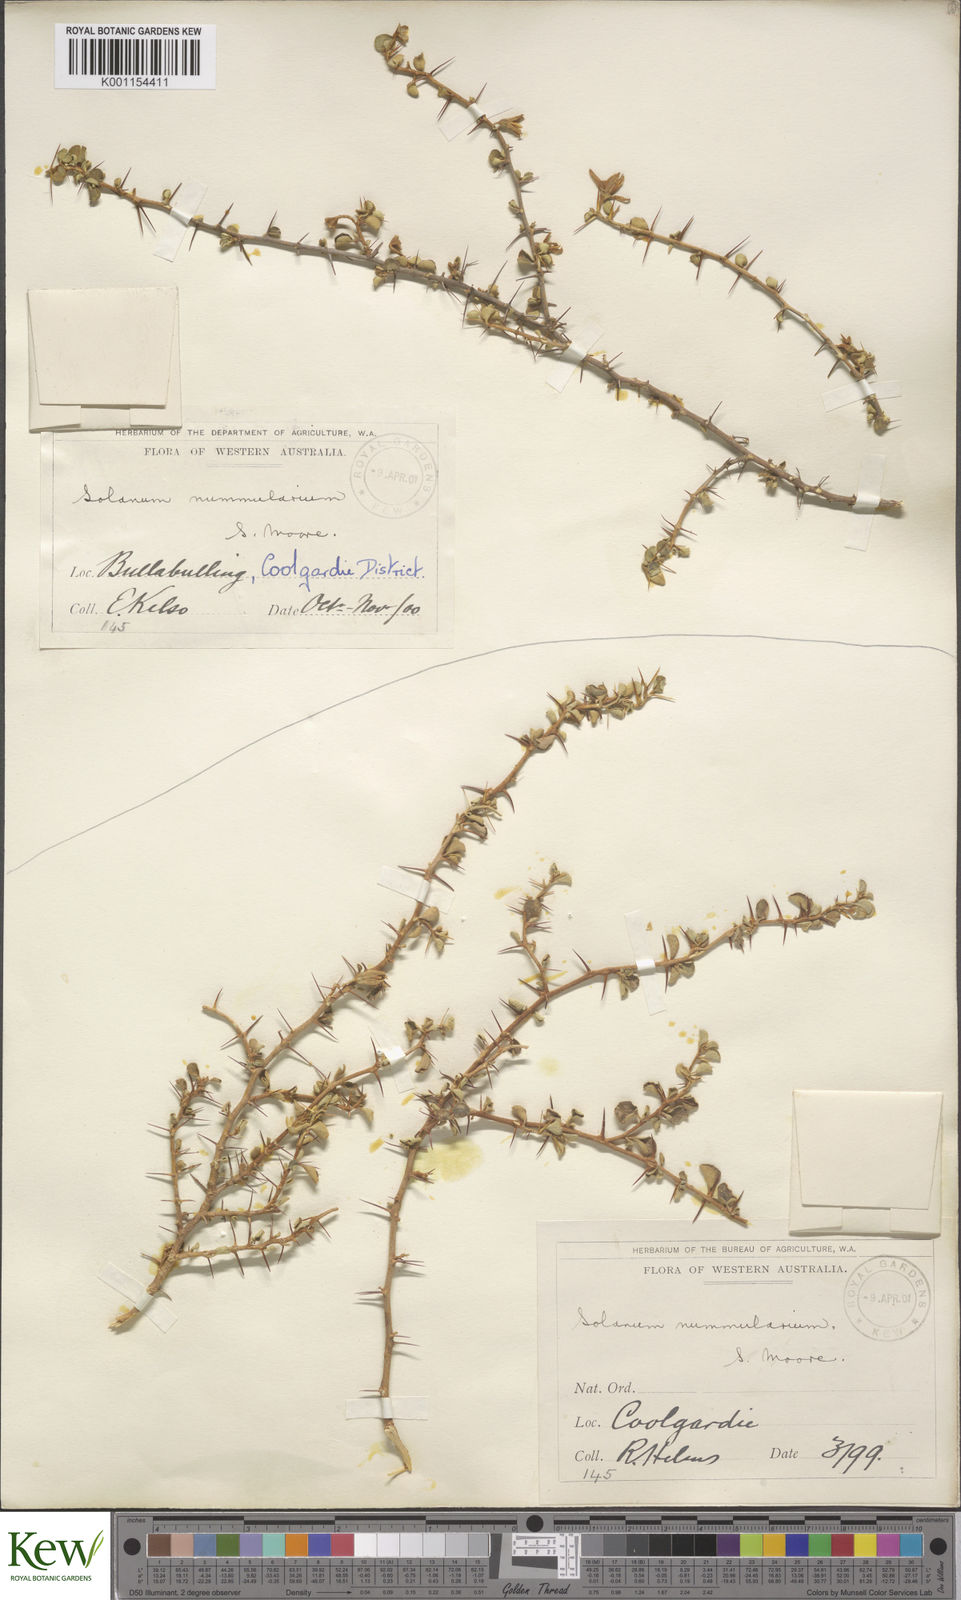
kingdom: Plantae
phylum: Tracheophyta
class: Magnoliopsida
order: Solanales
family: Solanaceae
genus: Solanum
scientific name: Solanum nummularium
